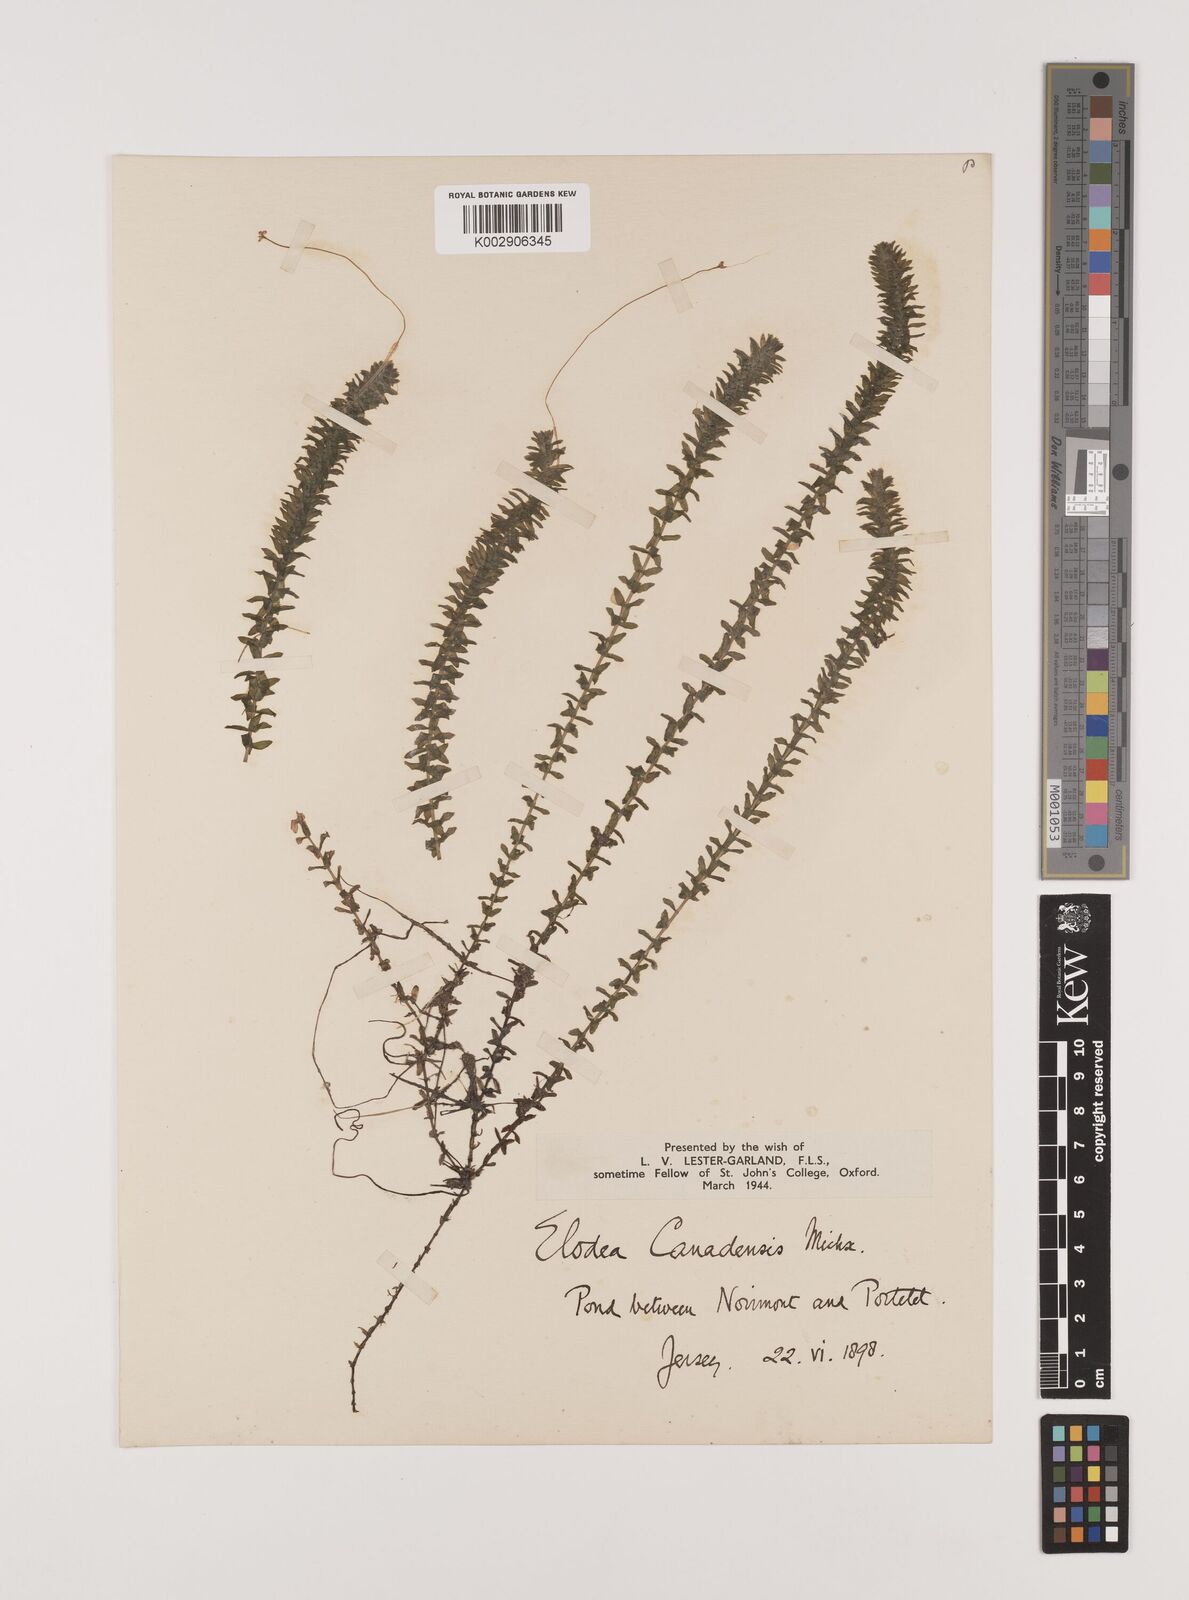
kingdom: Plantae
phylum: Tracheophyta
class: Liliopsida
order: Alismatales
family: Hydrocharitaceae
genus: Elodea
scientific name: Elodea canadensis
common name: Canadian waterweed
